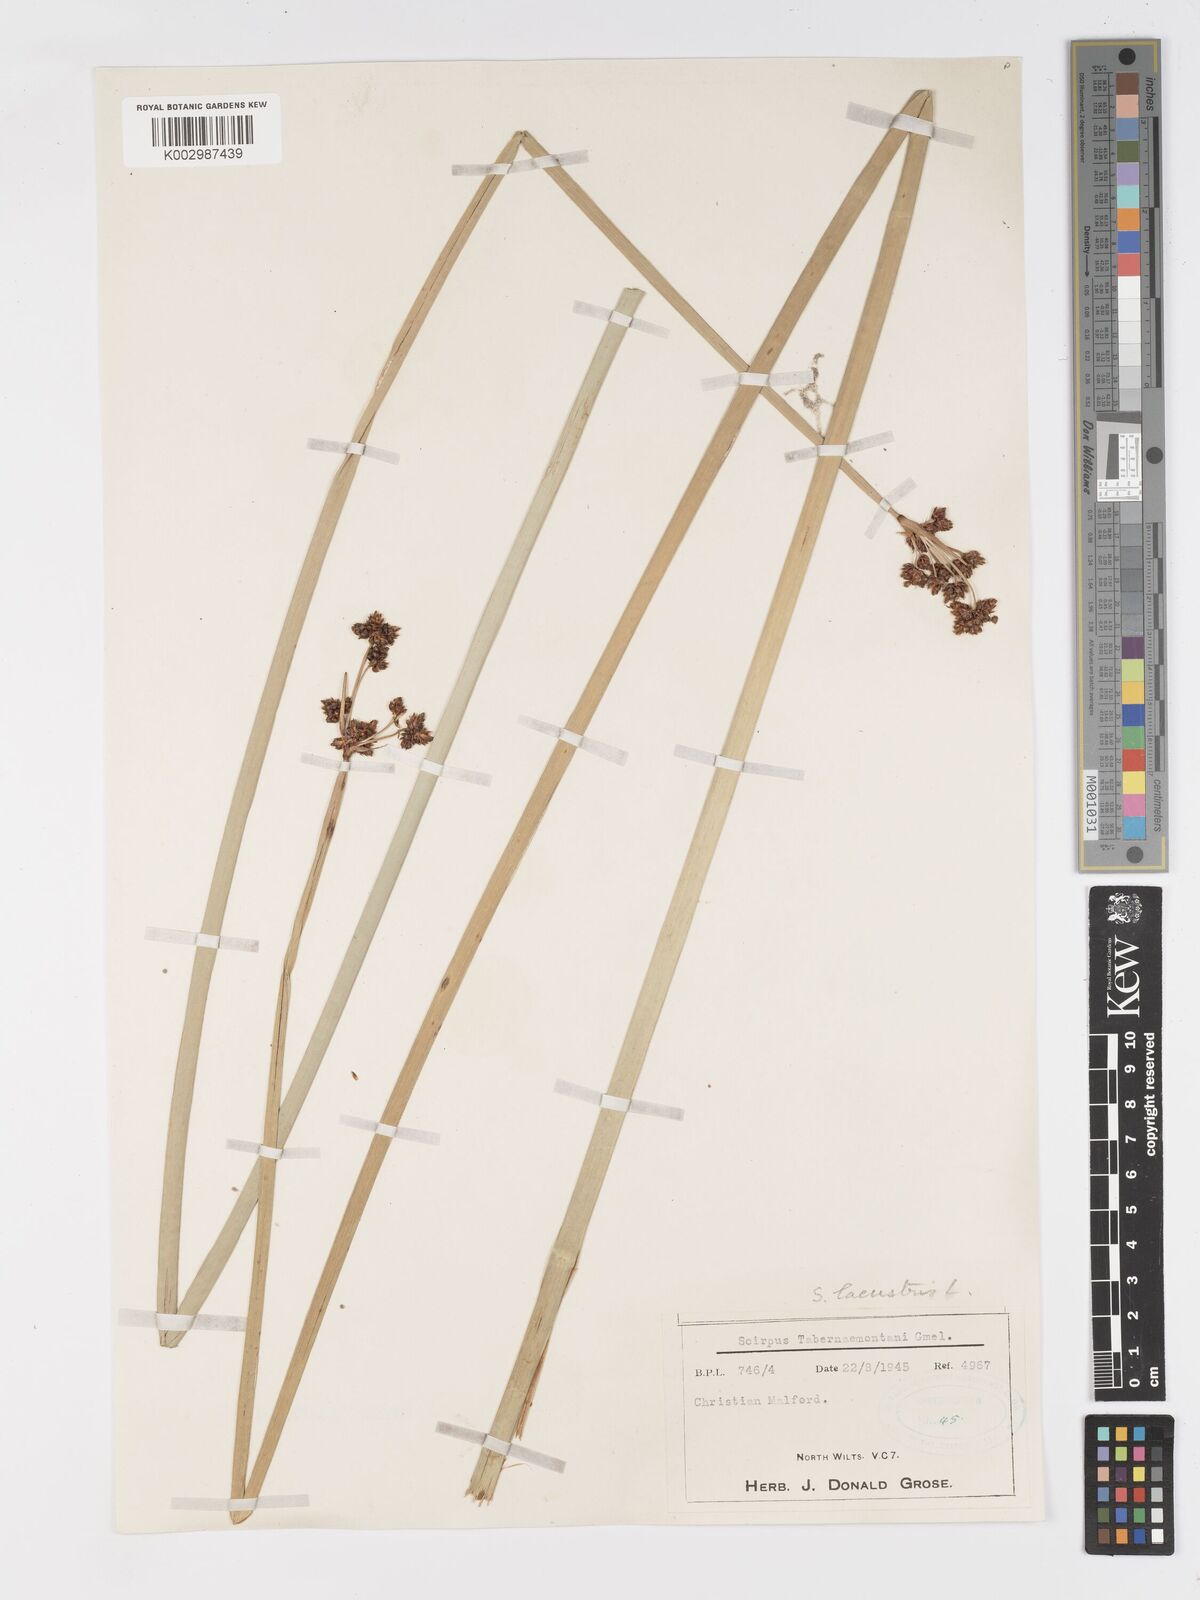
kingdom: Plantae
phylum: Tracheophyta
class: Liliopsida
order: Poales
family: Cyperaceae
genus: Schoenoplectus
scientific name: Schoenoplectus lacustris
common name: Common club-rush
